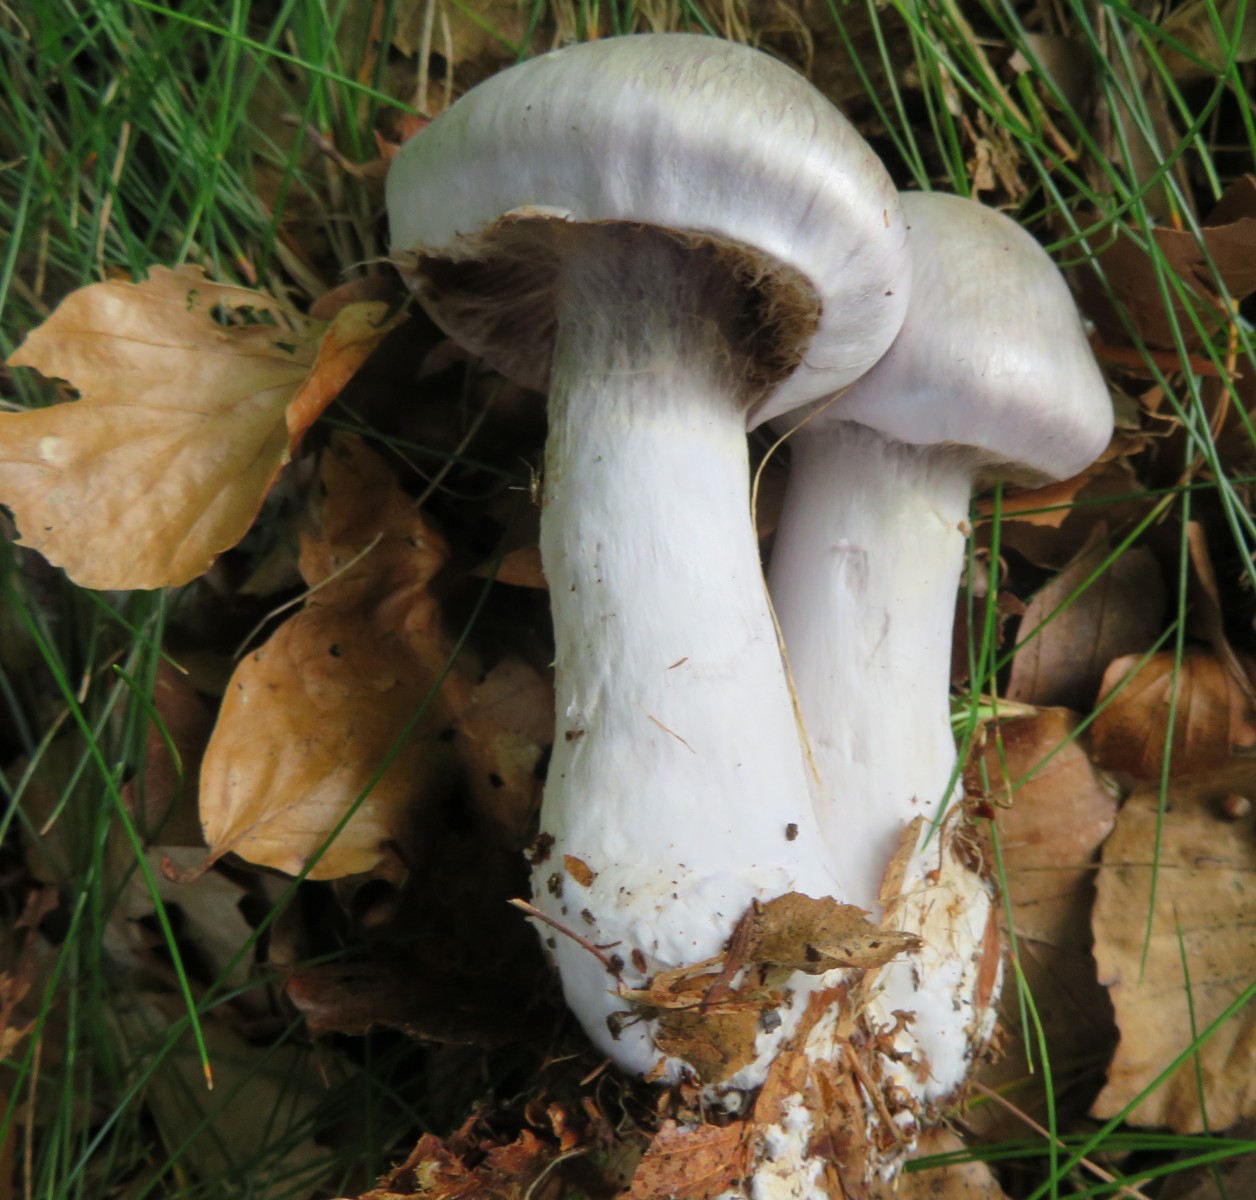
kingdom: Fungi
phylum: Basidiomycota
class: Agaricomycetes
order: Agaricales
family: Cortinariaceae
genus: Cortinarius
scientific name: Cortinarius alboviolaceus
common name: lysviolet slørhat
